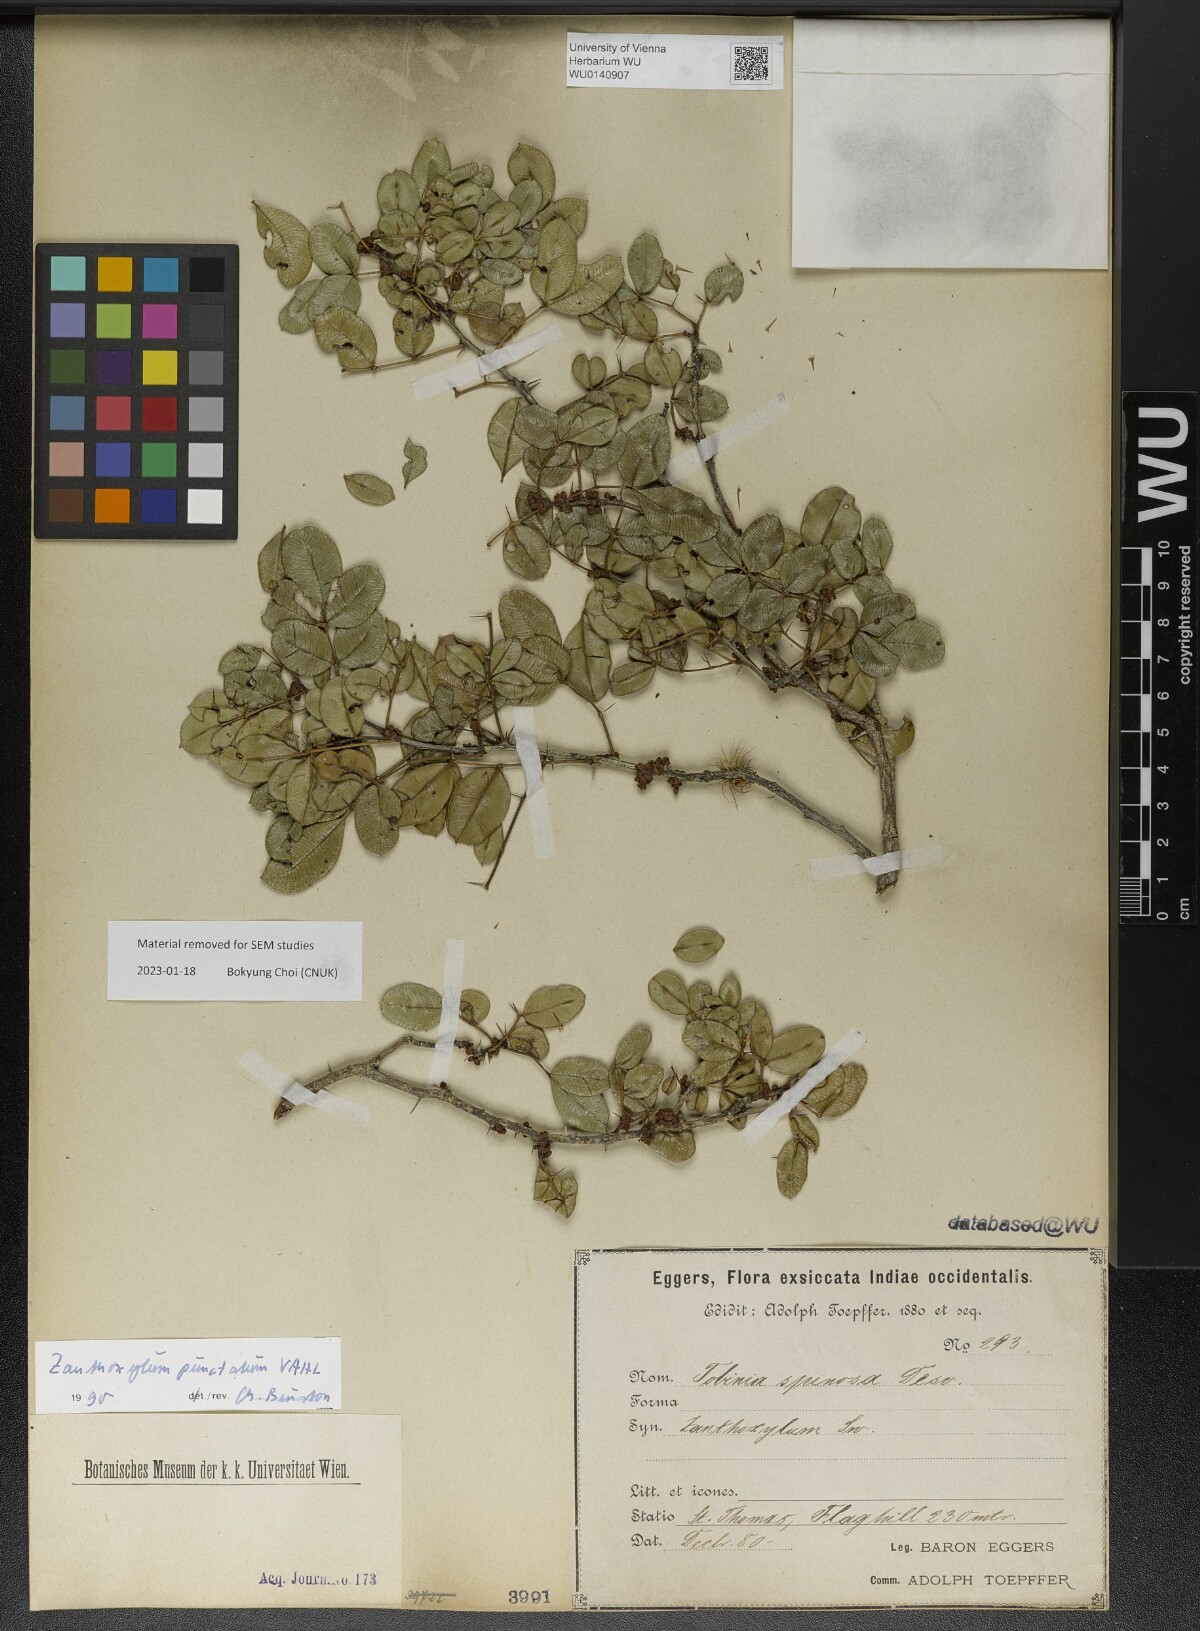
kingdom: Plantae
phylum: Tracheophyta
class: Magnoliopsida
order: Sapindales
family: Rutaceae
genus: Zanthoxylum
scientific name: Zanthoxylum punctatum
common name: Dotted pricklyash
